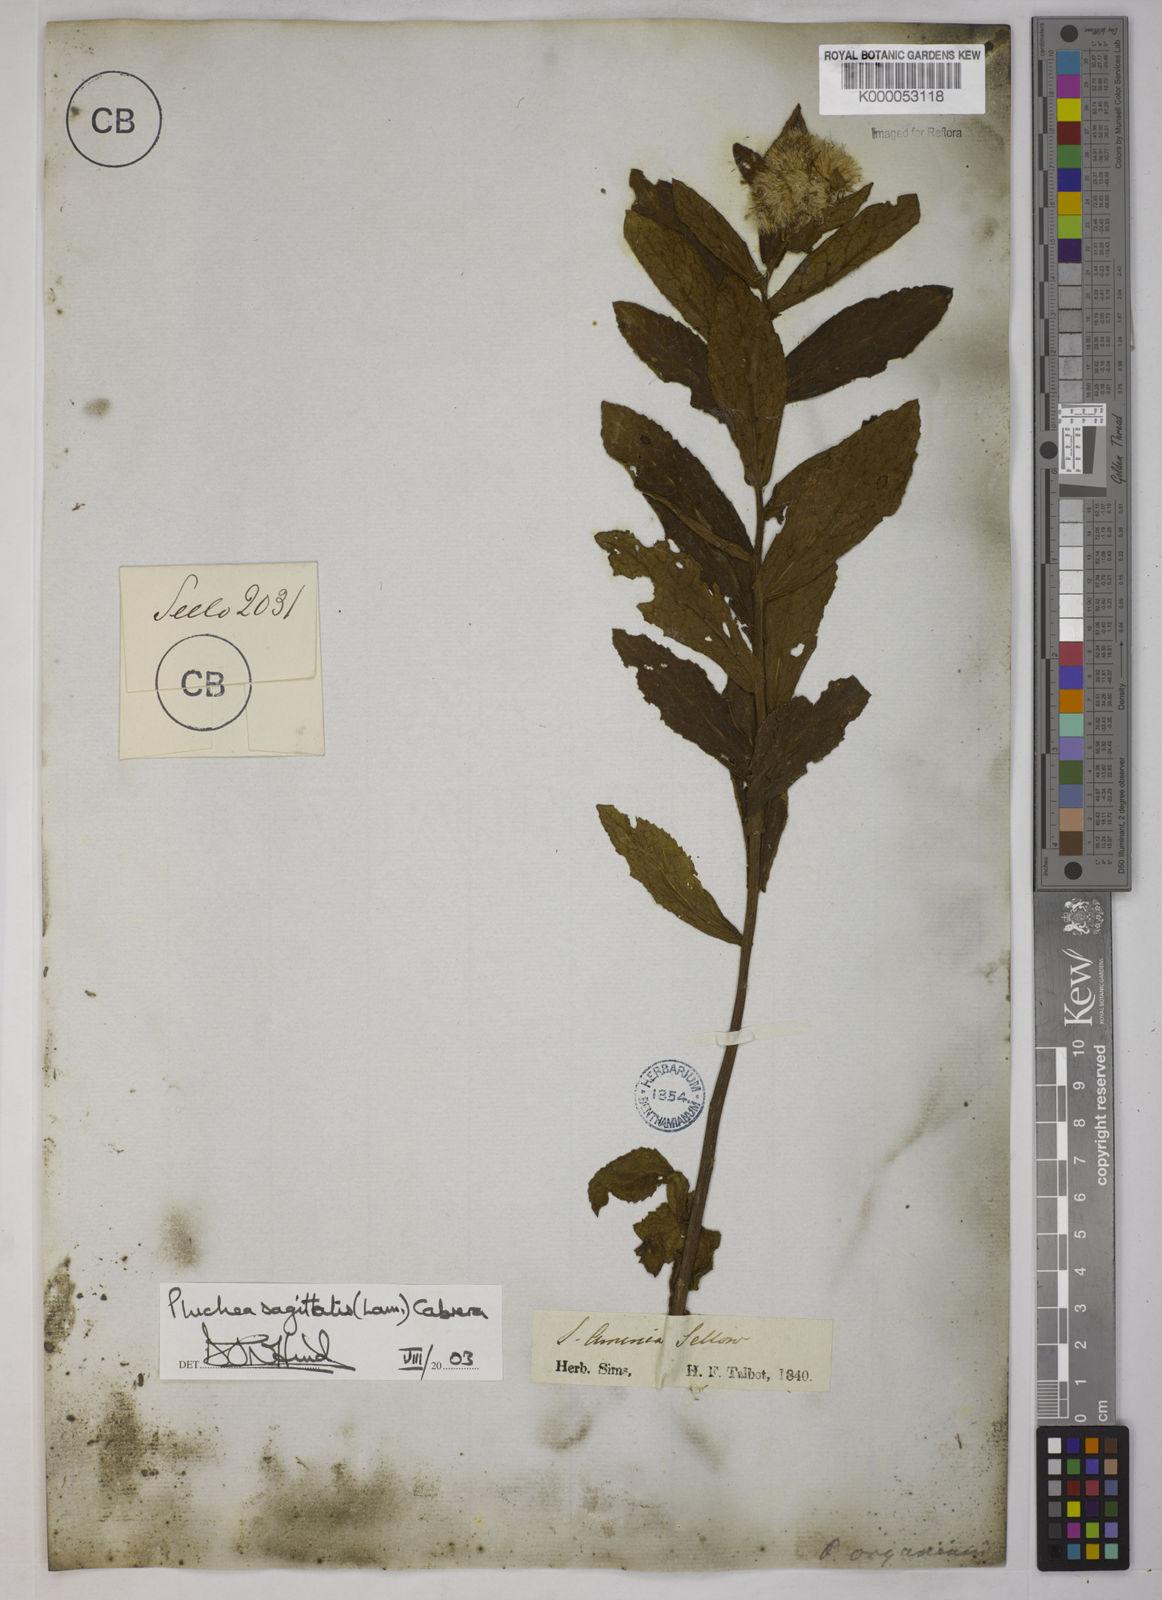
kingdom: Plantae
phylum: Tracheophyta
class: Magnoliopsida
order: Asterales
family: Asteraceae
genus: Pluchea
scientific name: Pluchea sagittalis
